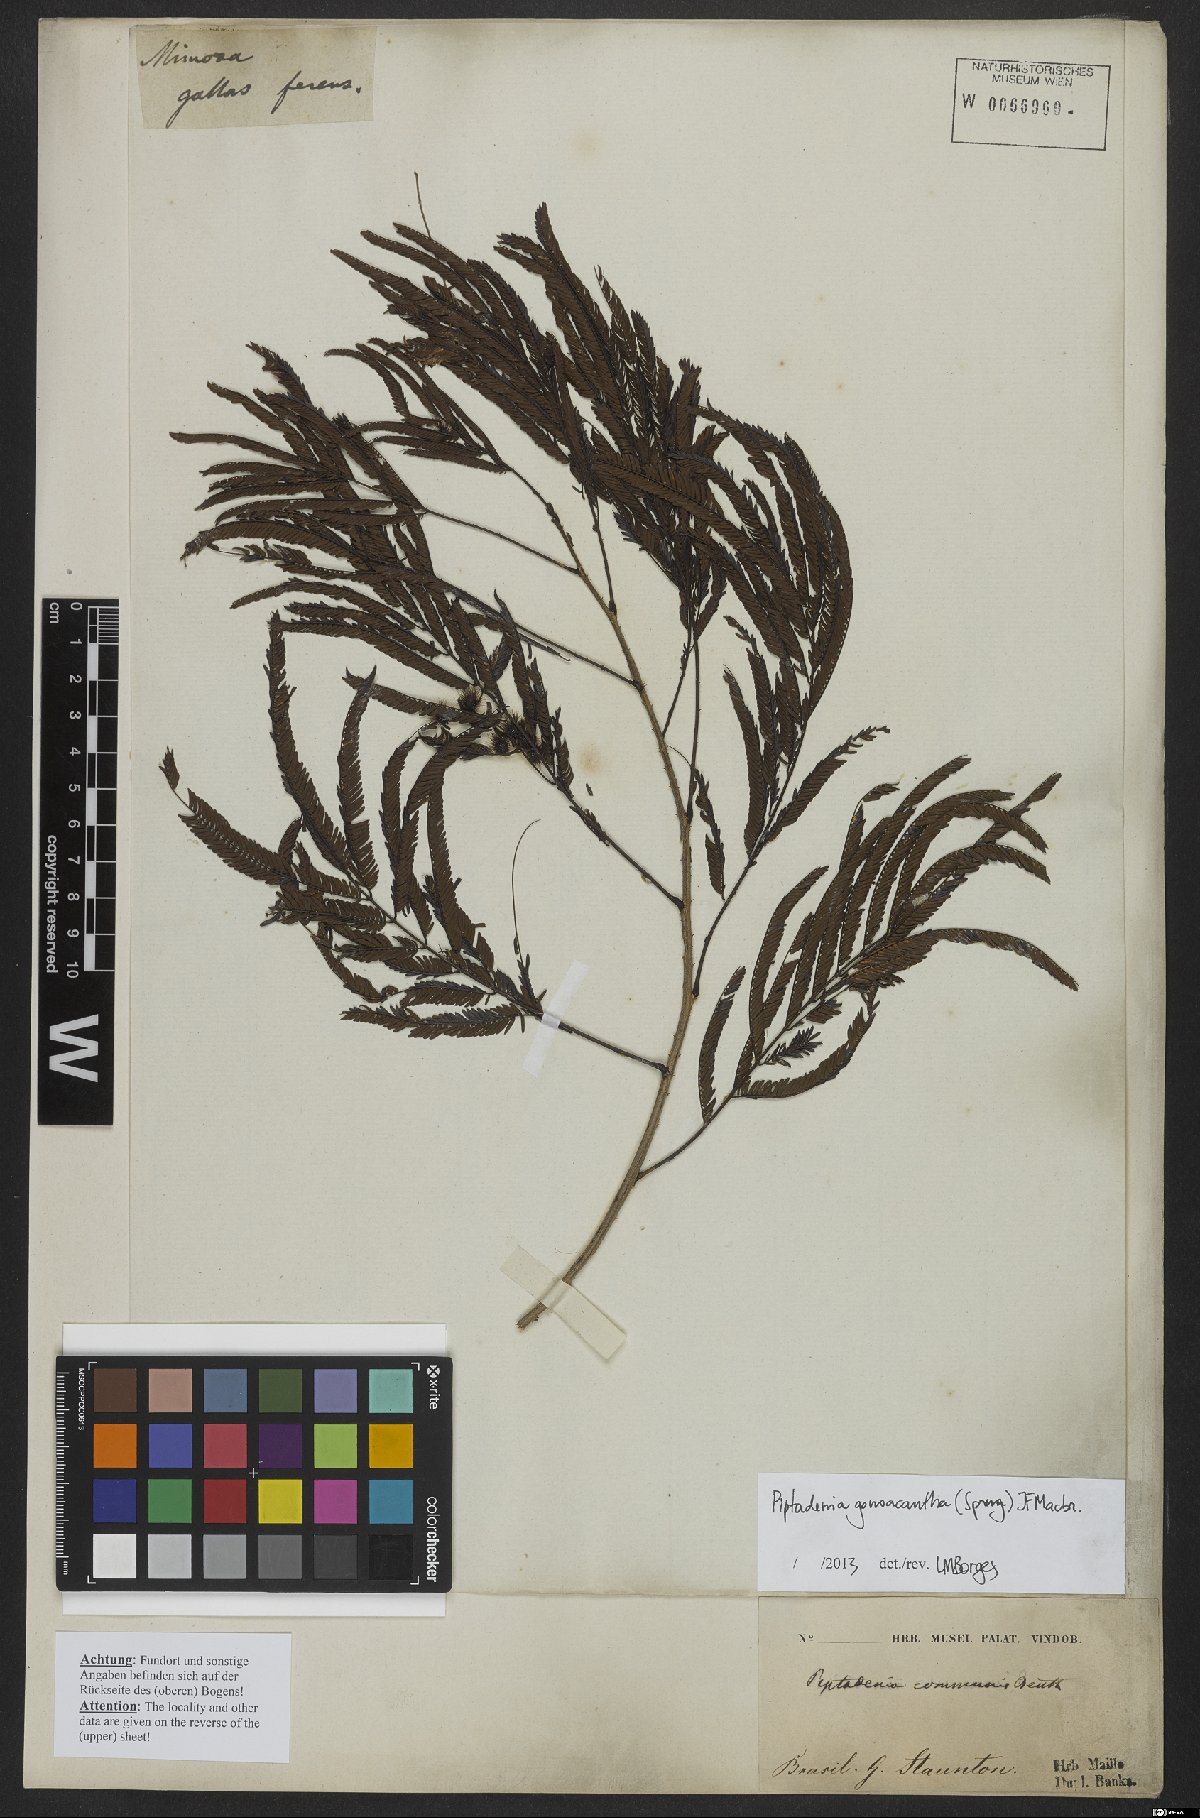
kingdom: Plantae
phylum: Tracheophyta
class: Magnoliopsida
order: Fabales
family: Fabaceae
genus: Piptadenia
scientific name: Piptadenia gonoacantha
